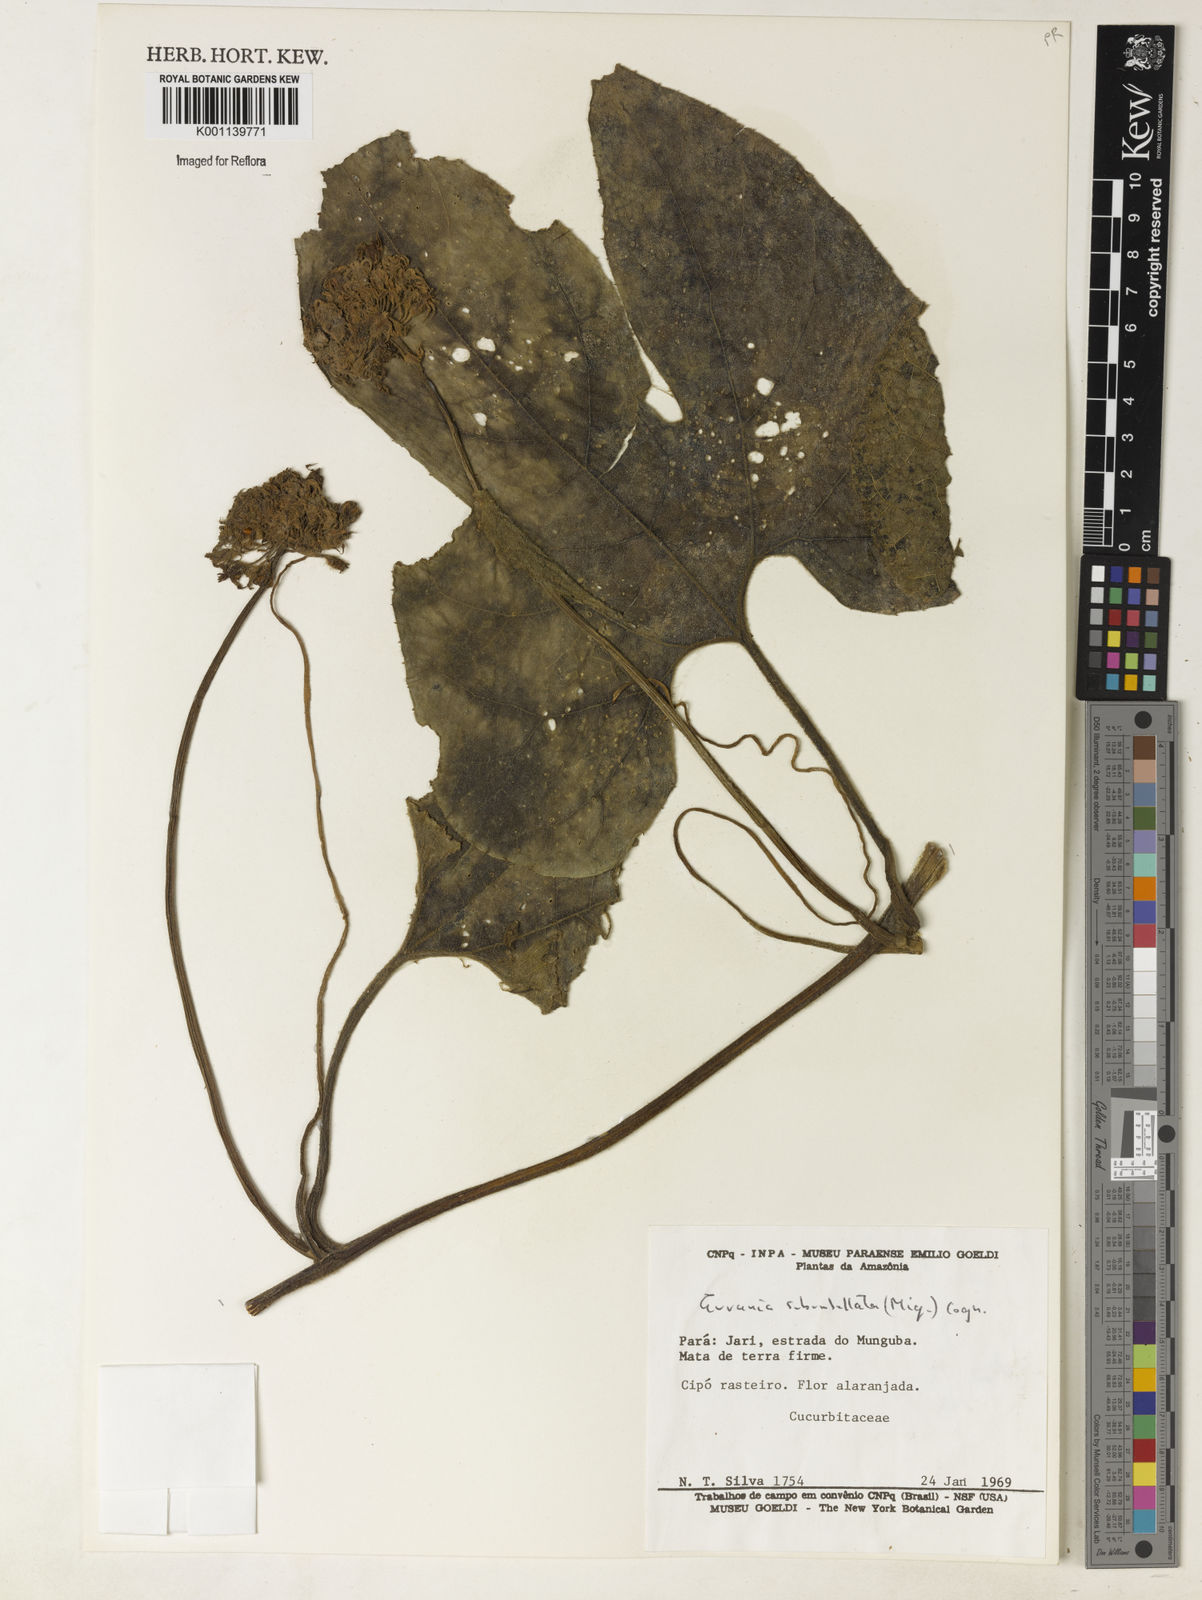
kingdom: Plantae
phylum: Tracheophyta
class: Magnoliopsida
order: Cucurbitales
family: Cucurbitaceae
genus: Gurania
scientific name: Gurania subumbellata
